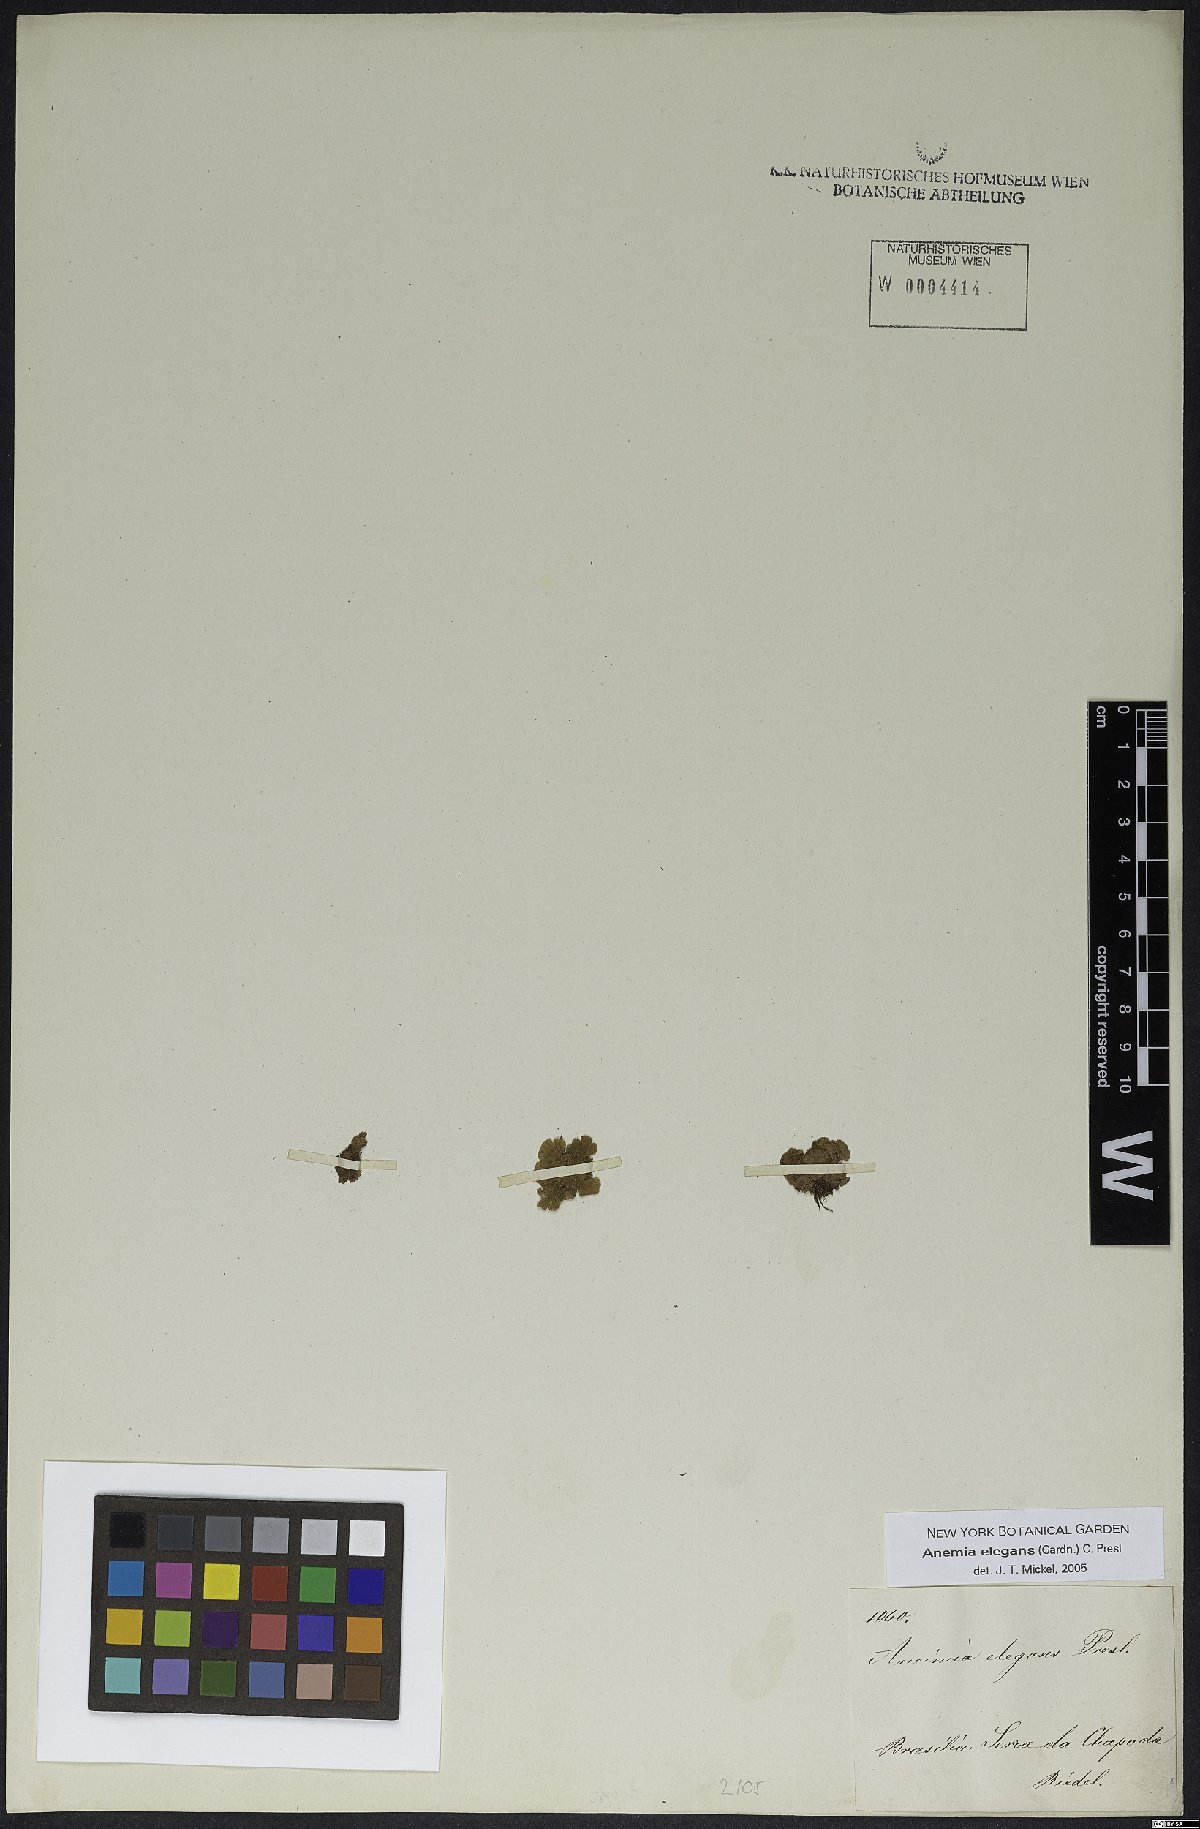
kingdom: Plantae
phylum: Tracheophyta
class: Polypodiopsida
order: Schizaeales
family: Anemiaceae
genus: Anemia
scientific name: Anemia elegans
